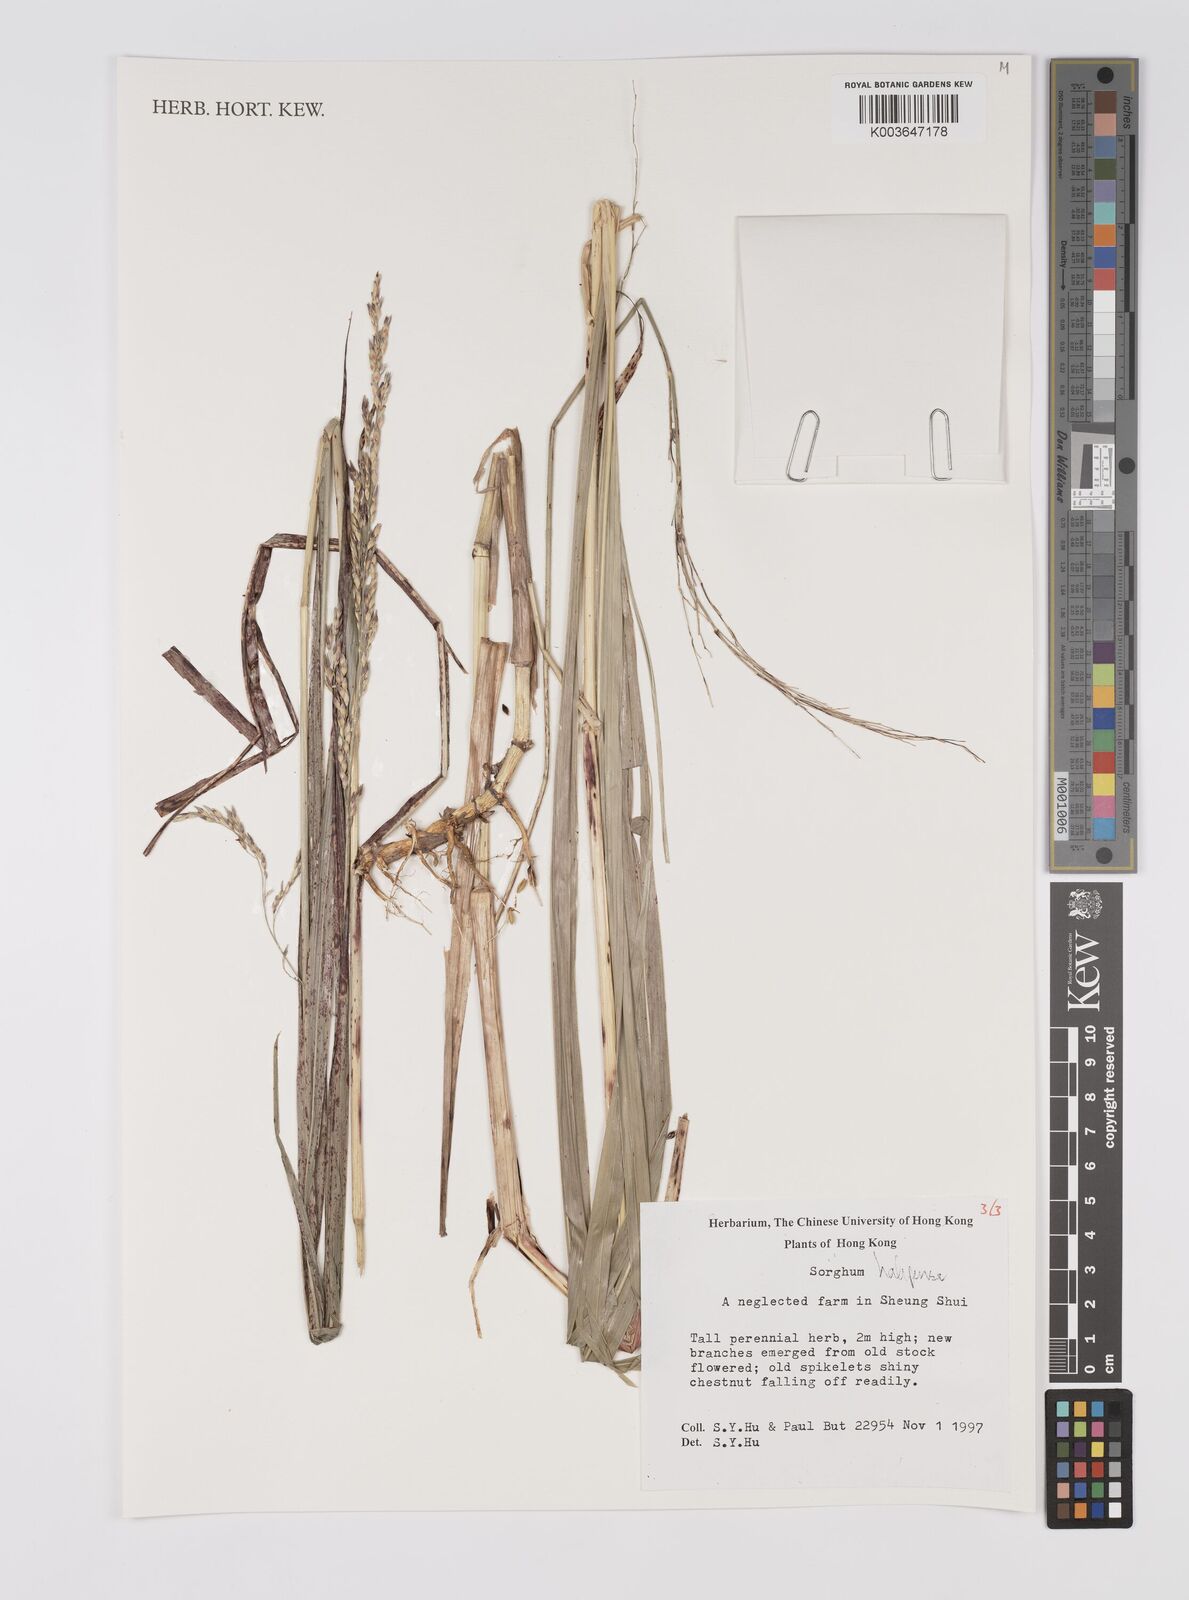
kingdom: Plantae
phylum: Tracheophyta
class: Liliopsida
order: Poales
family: Poaceae
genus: Sorghum
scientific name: Sorghum halepense
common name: Johnson-grass
